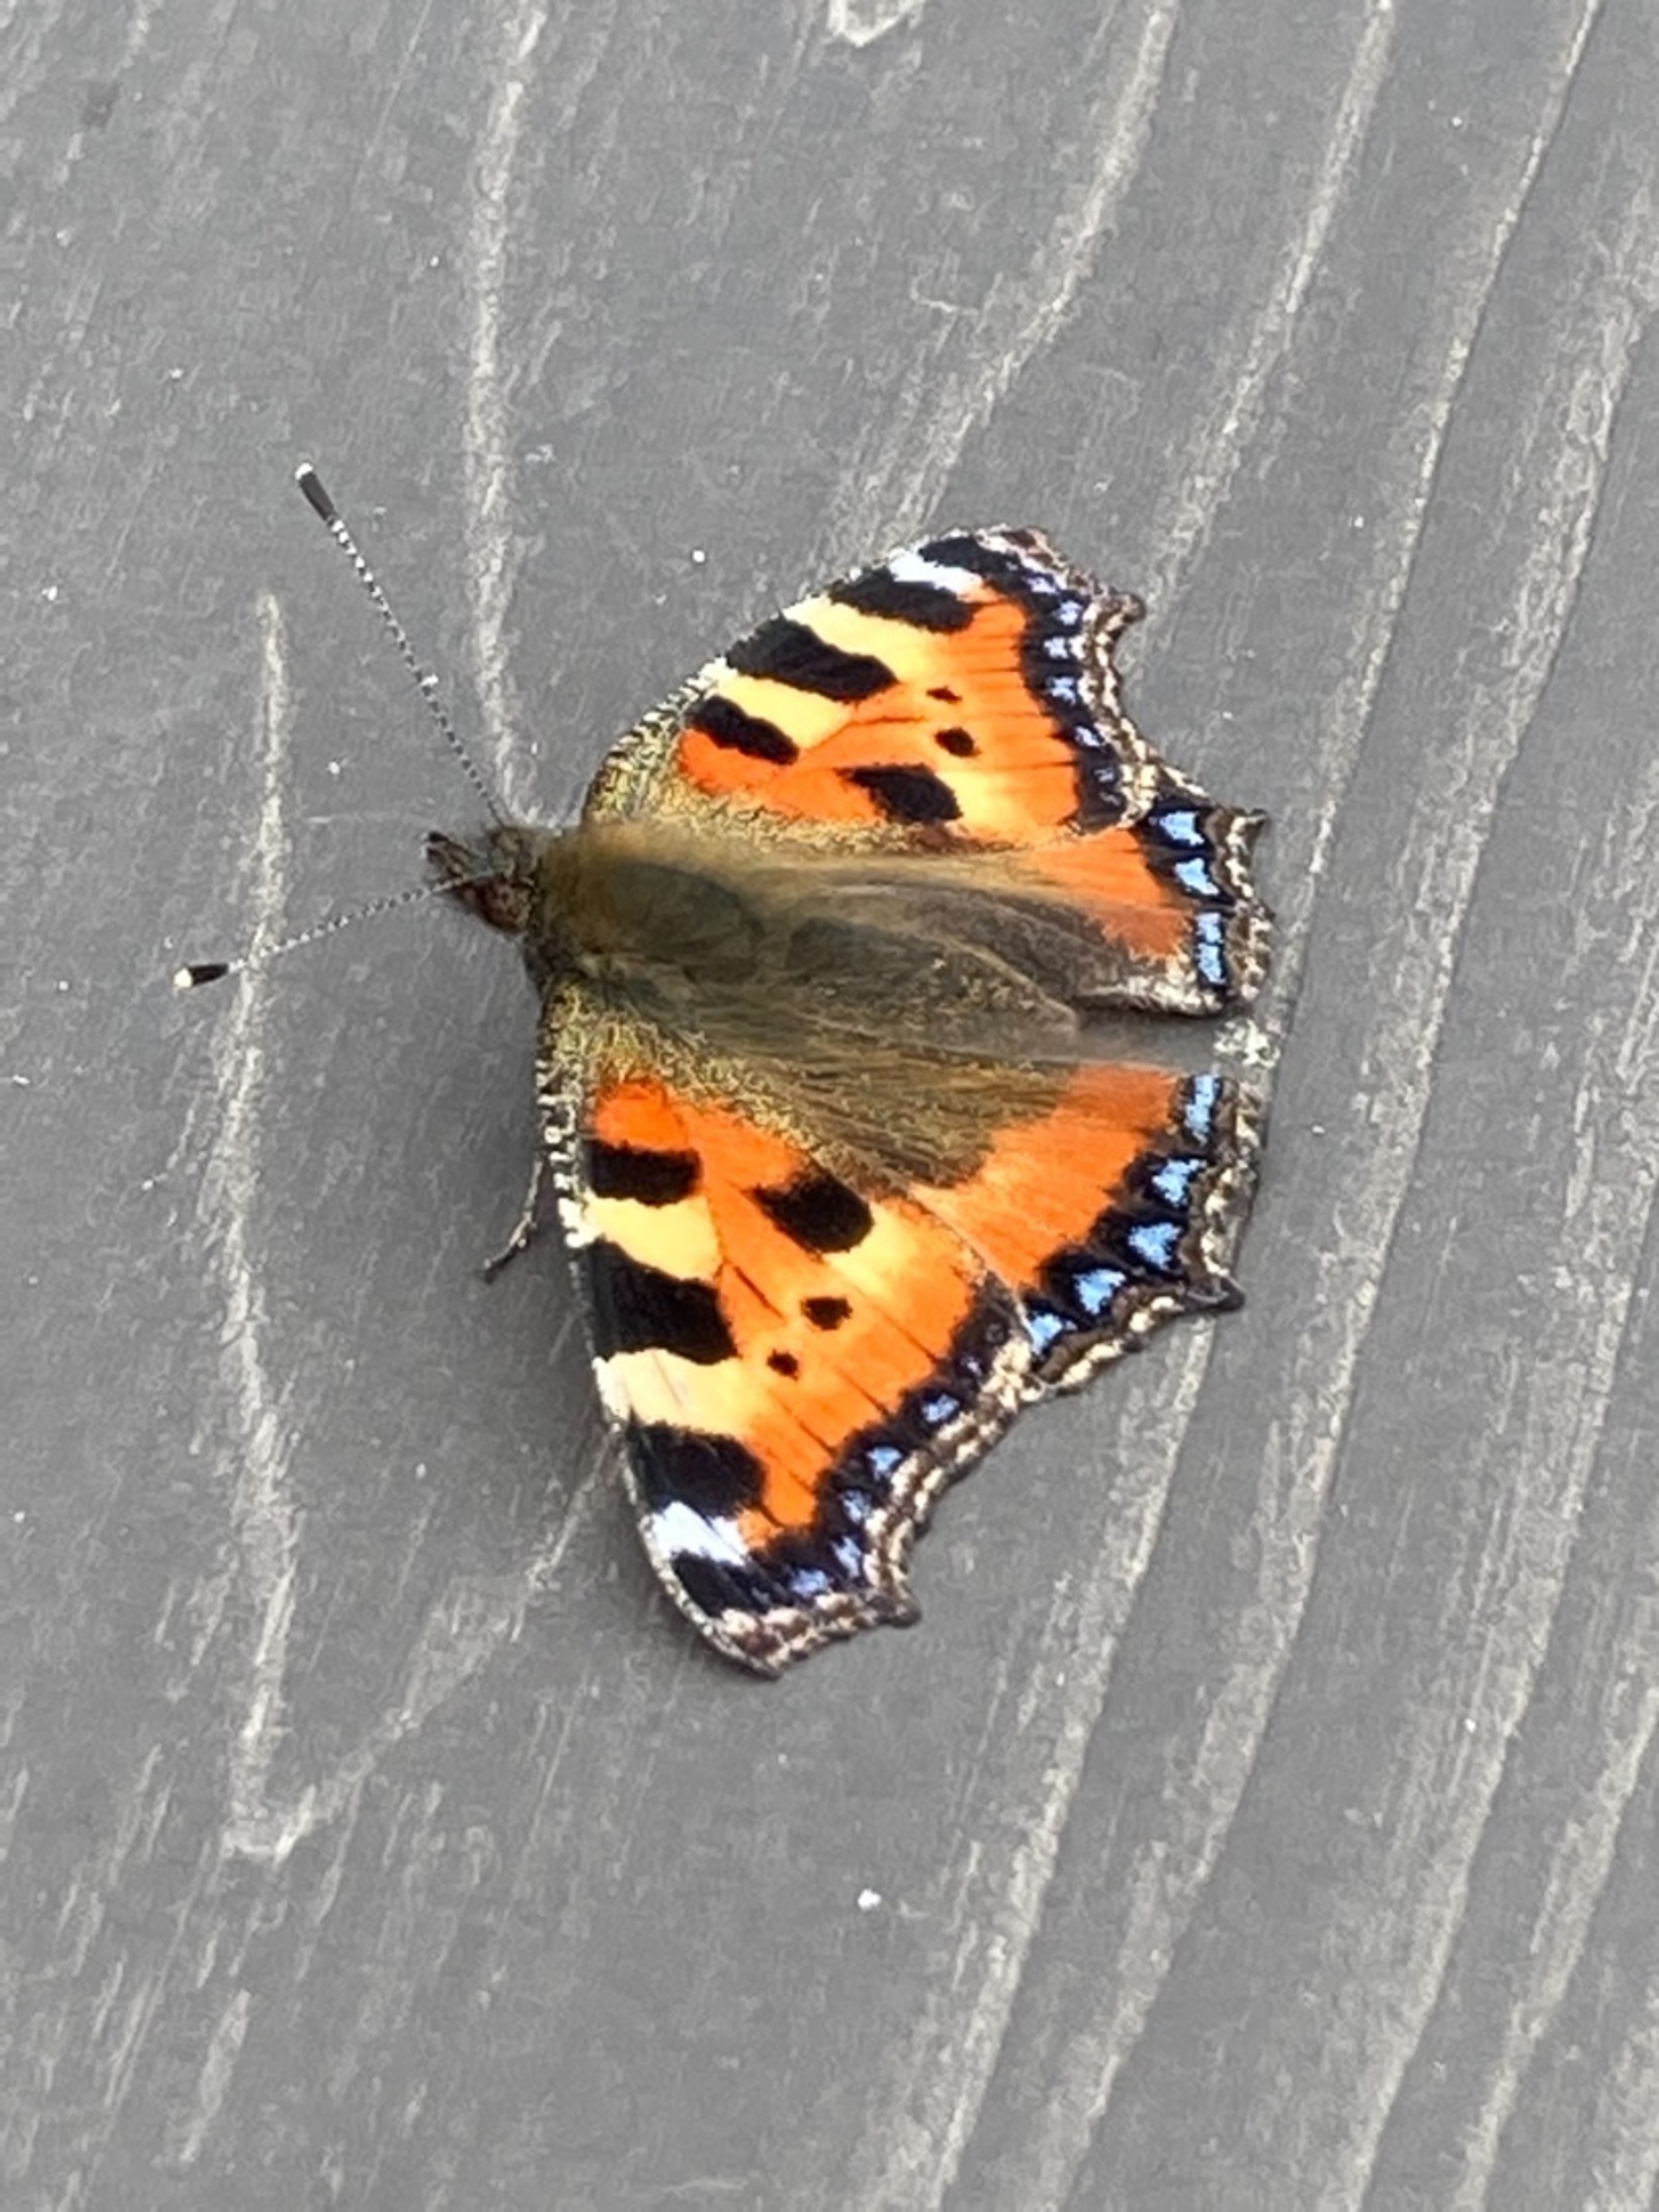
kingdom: Animalia
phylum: Arthropoda
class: Insecta
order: Lepidoptera
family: Nymphalidae
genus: Aglais
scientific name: Aglais urticae
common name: Nældens takvinge
